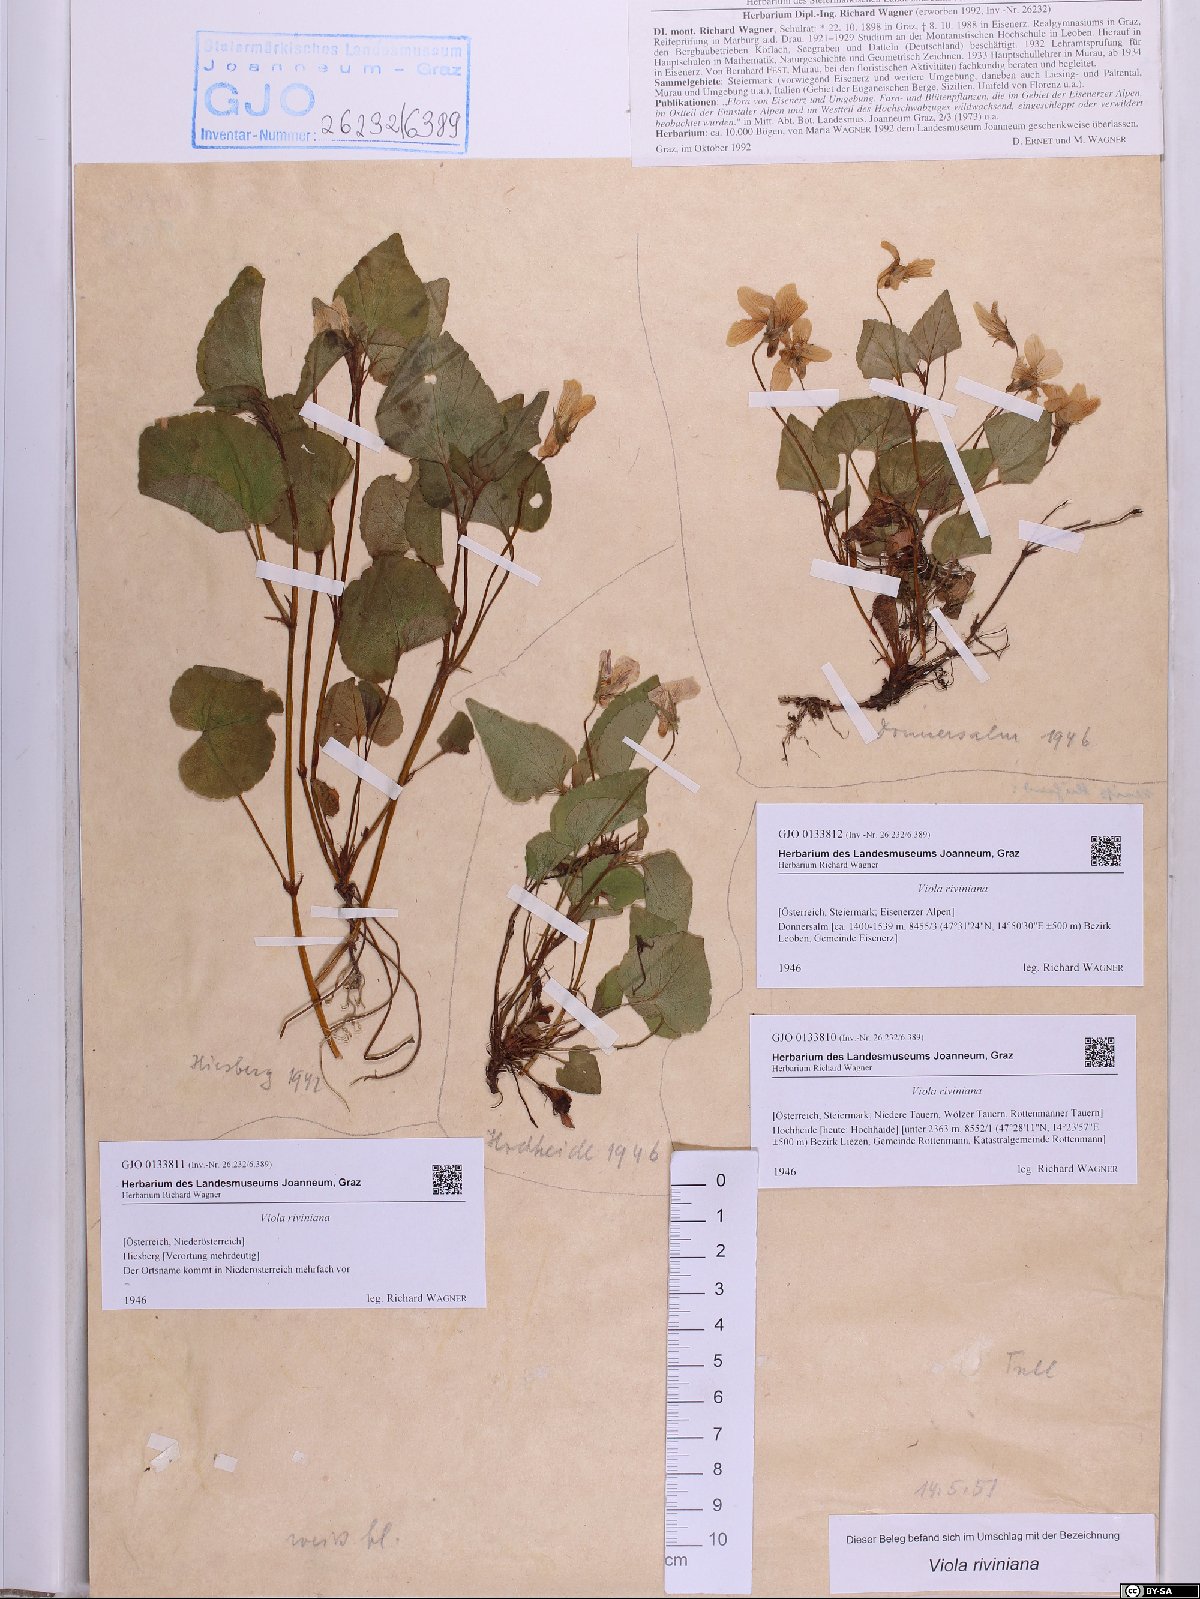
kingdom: Plantae
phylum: Tracheophyta
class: Magnoliopsida
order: Malpighiales
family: Violaceae
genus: Viola
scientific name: Viola riviniana
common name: Common dog-violet
